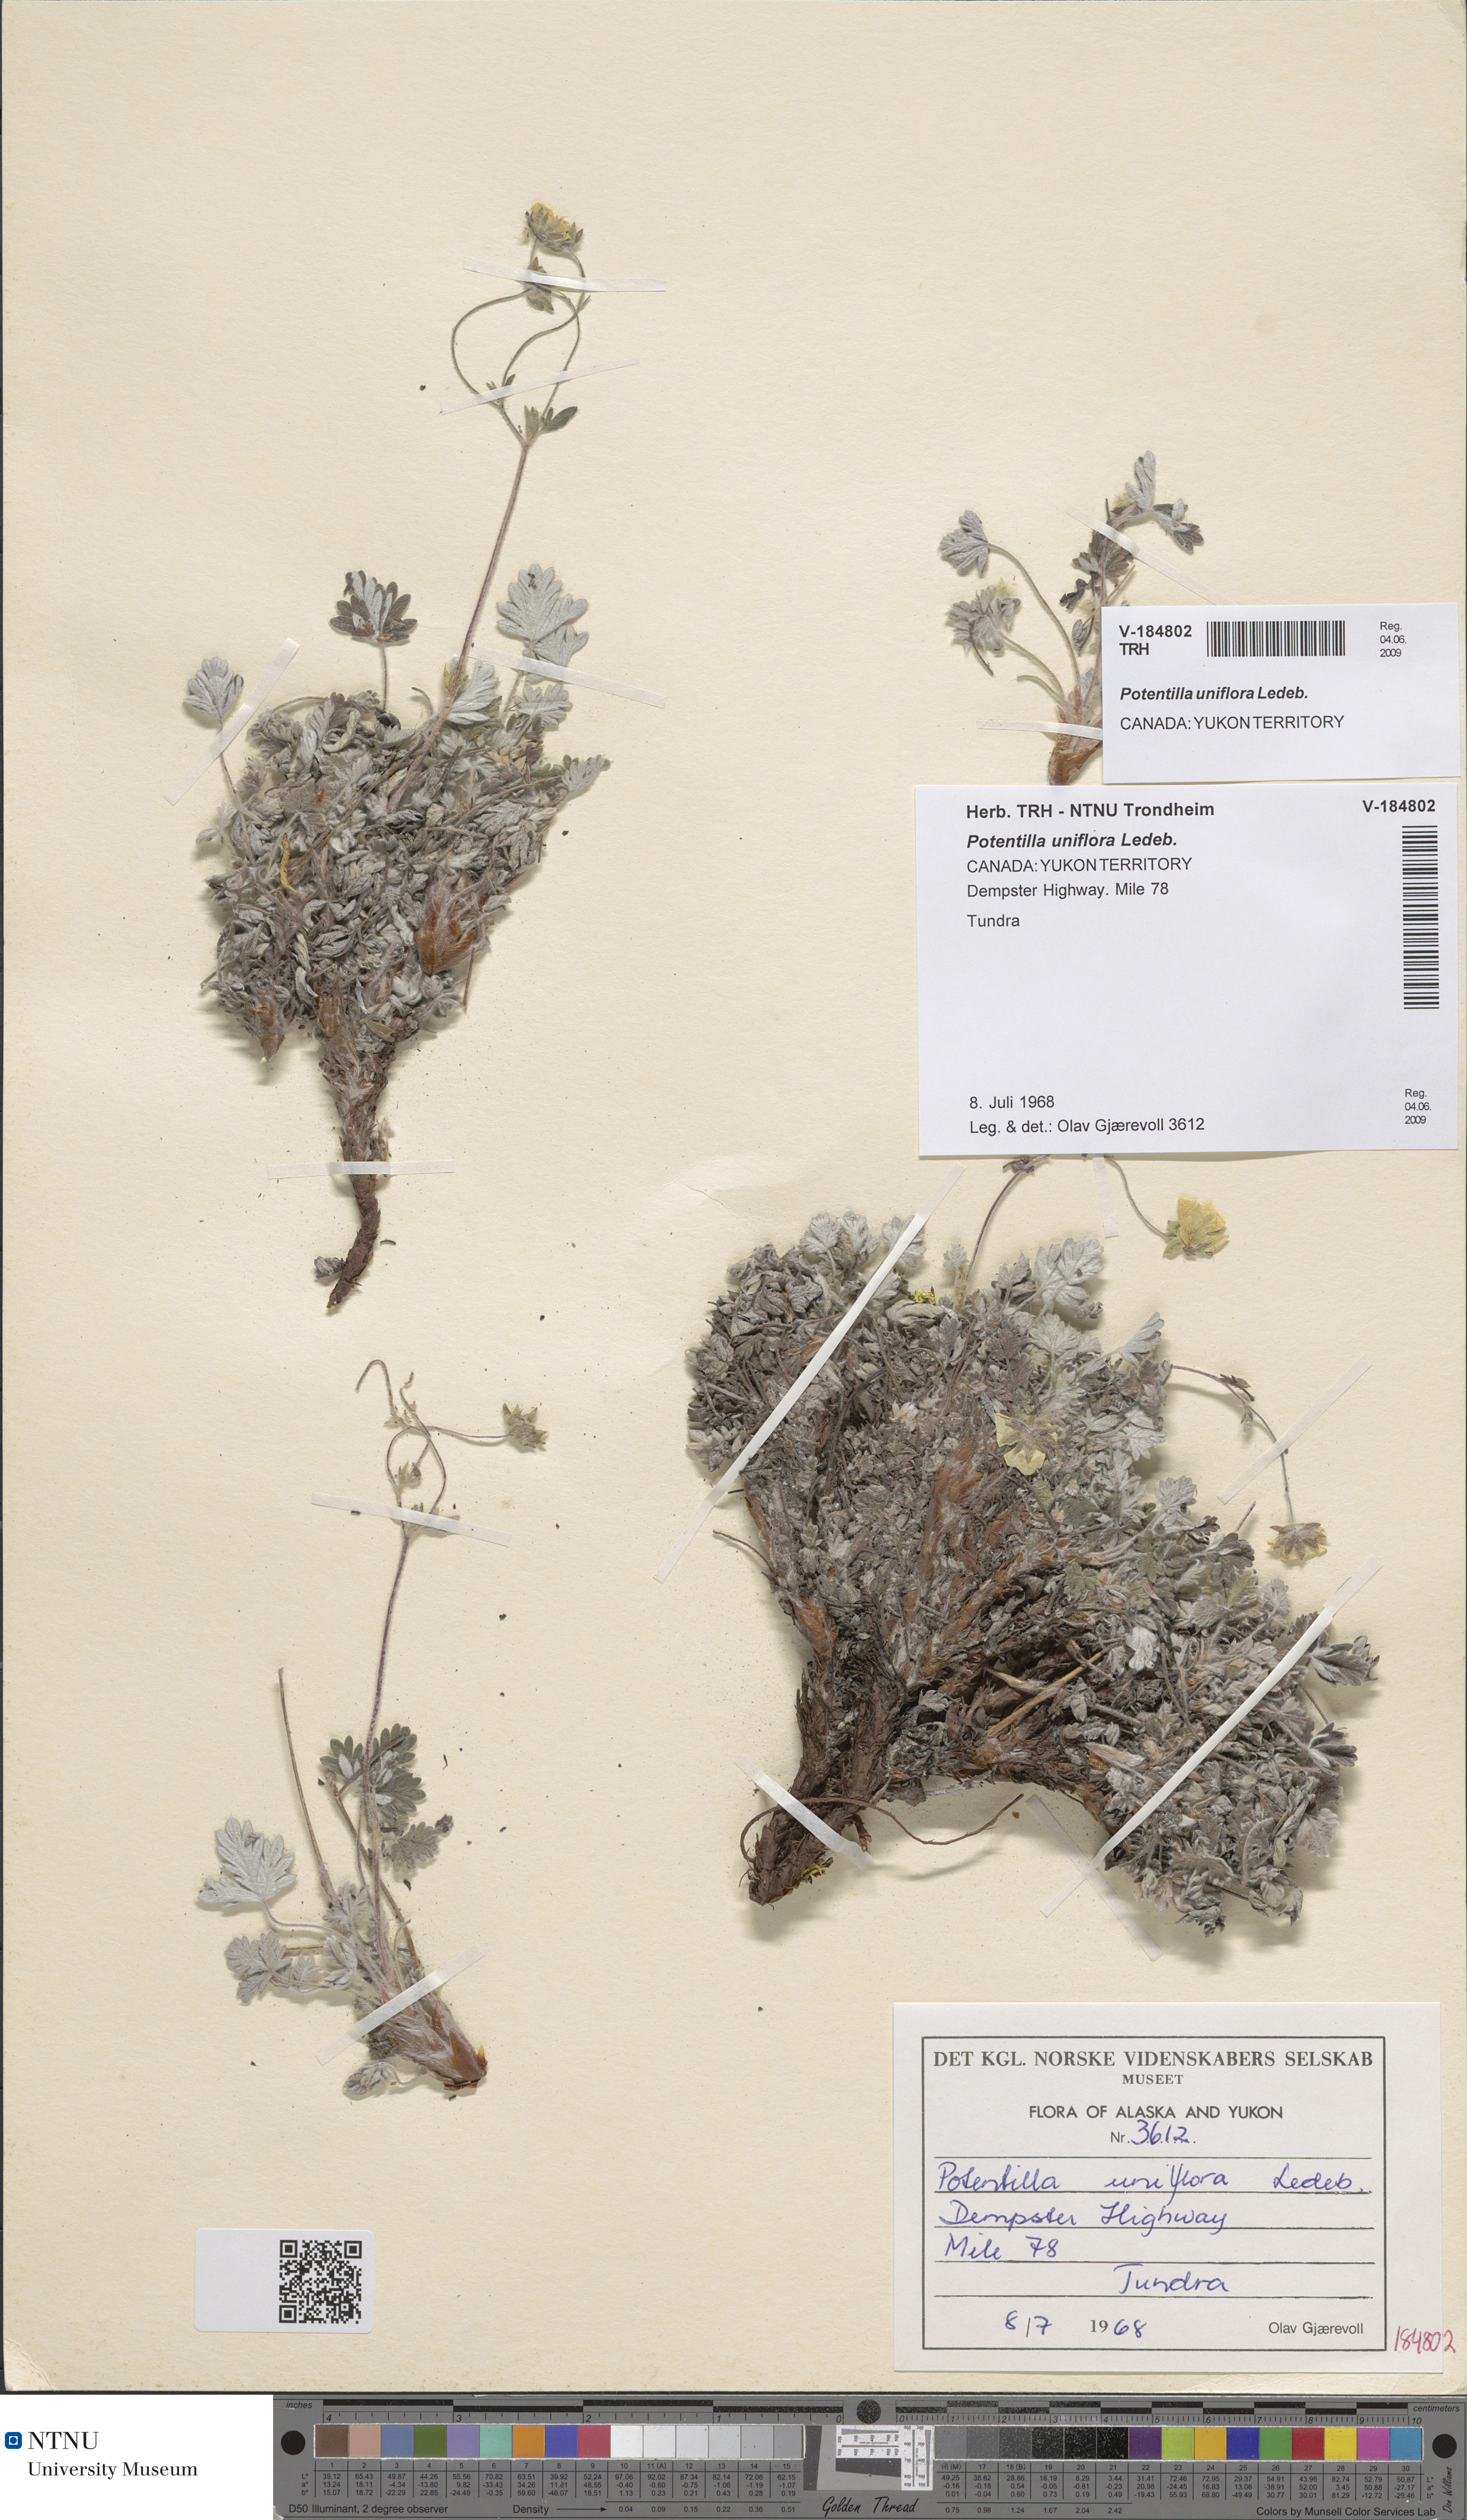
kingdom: Plantae
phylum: Tracheophyta
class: Magnoliopsida
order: Rosales
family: Rosaceae
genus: Potentilla
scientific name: Potentilla uniflora
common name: One-flowered cinquefoil
